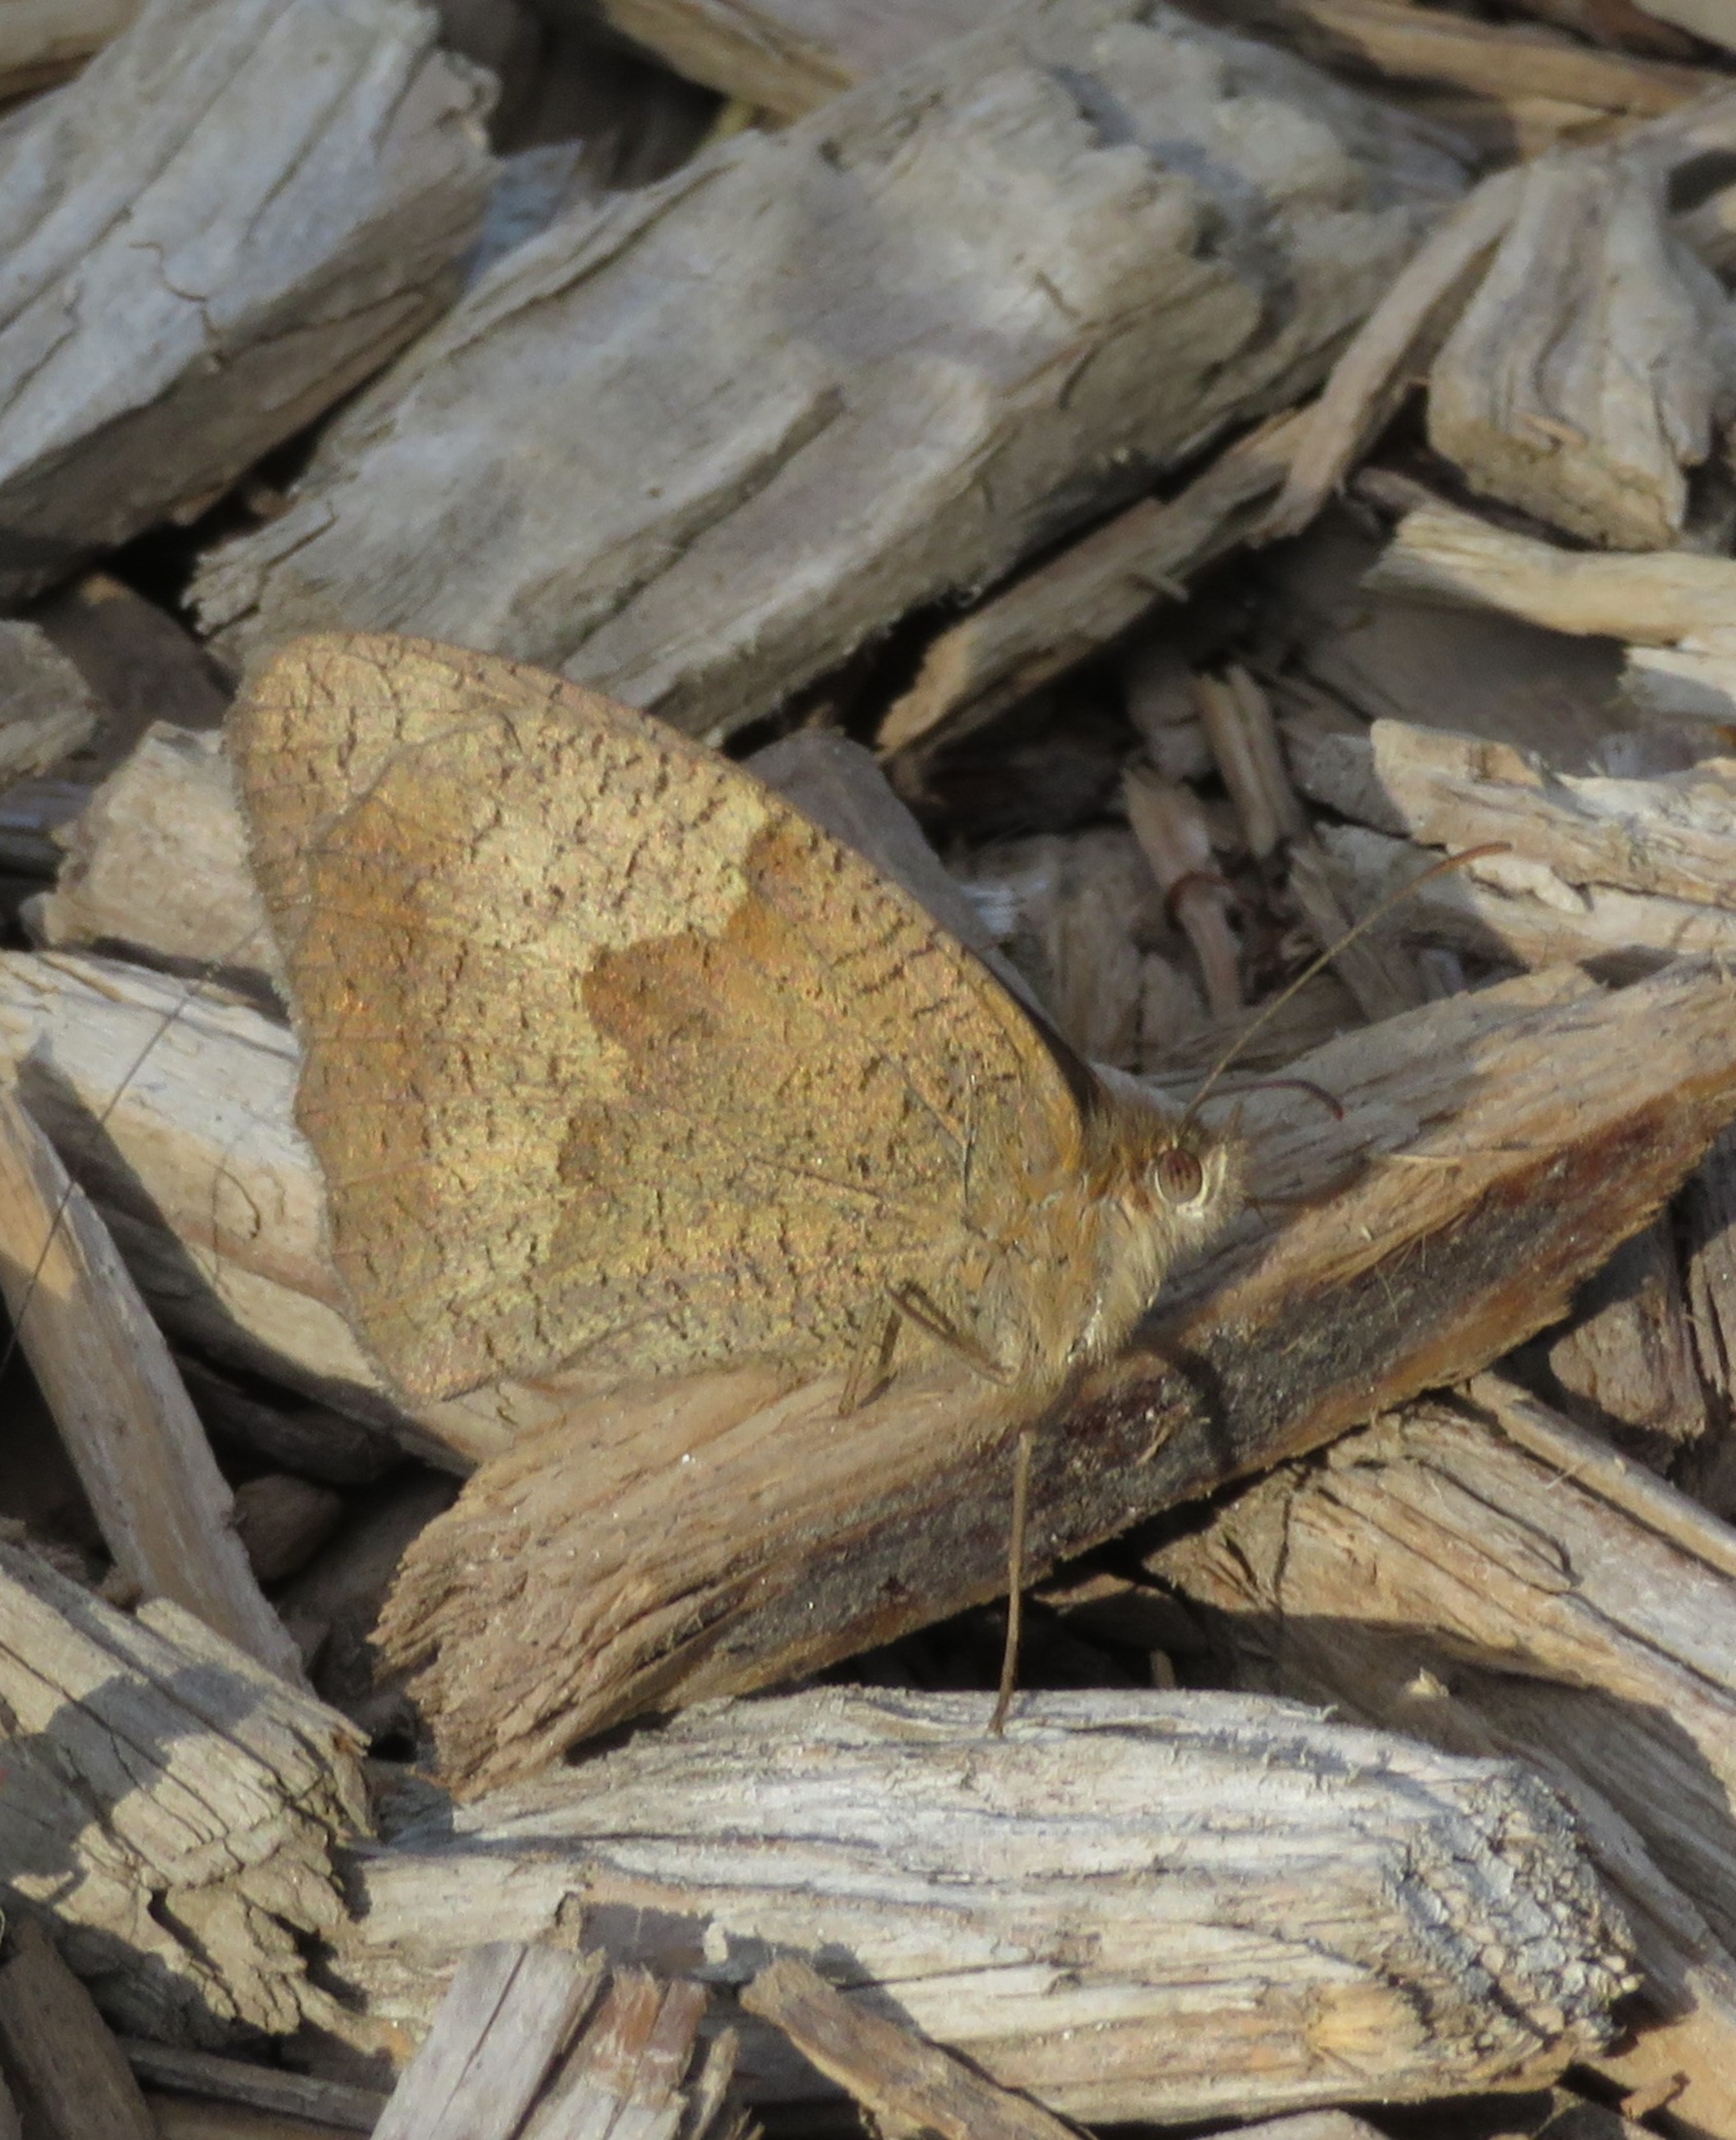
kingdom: Animalia
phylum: Arthropoda
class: Insecta
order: Lepidoptera
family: Nymphalidae
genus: Maniola
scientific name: Maniola jurtina
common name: Græsrandøje
